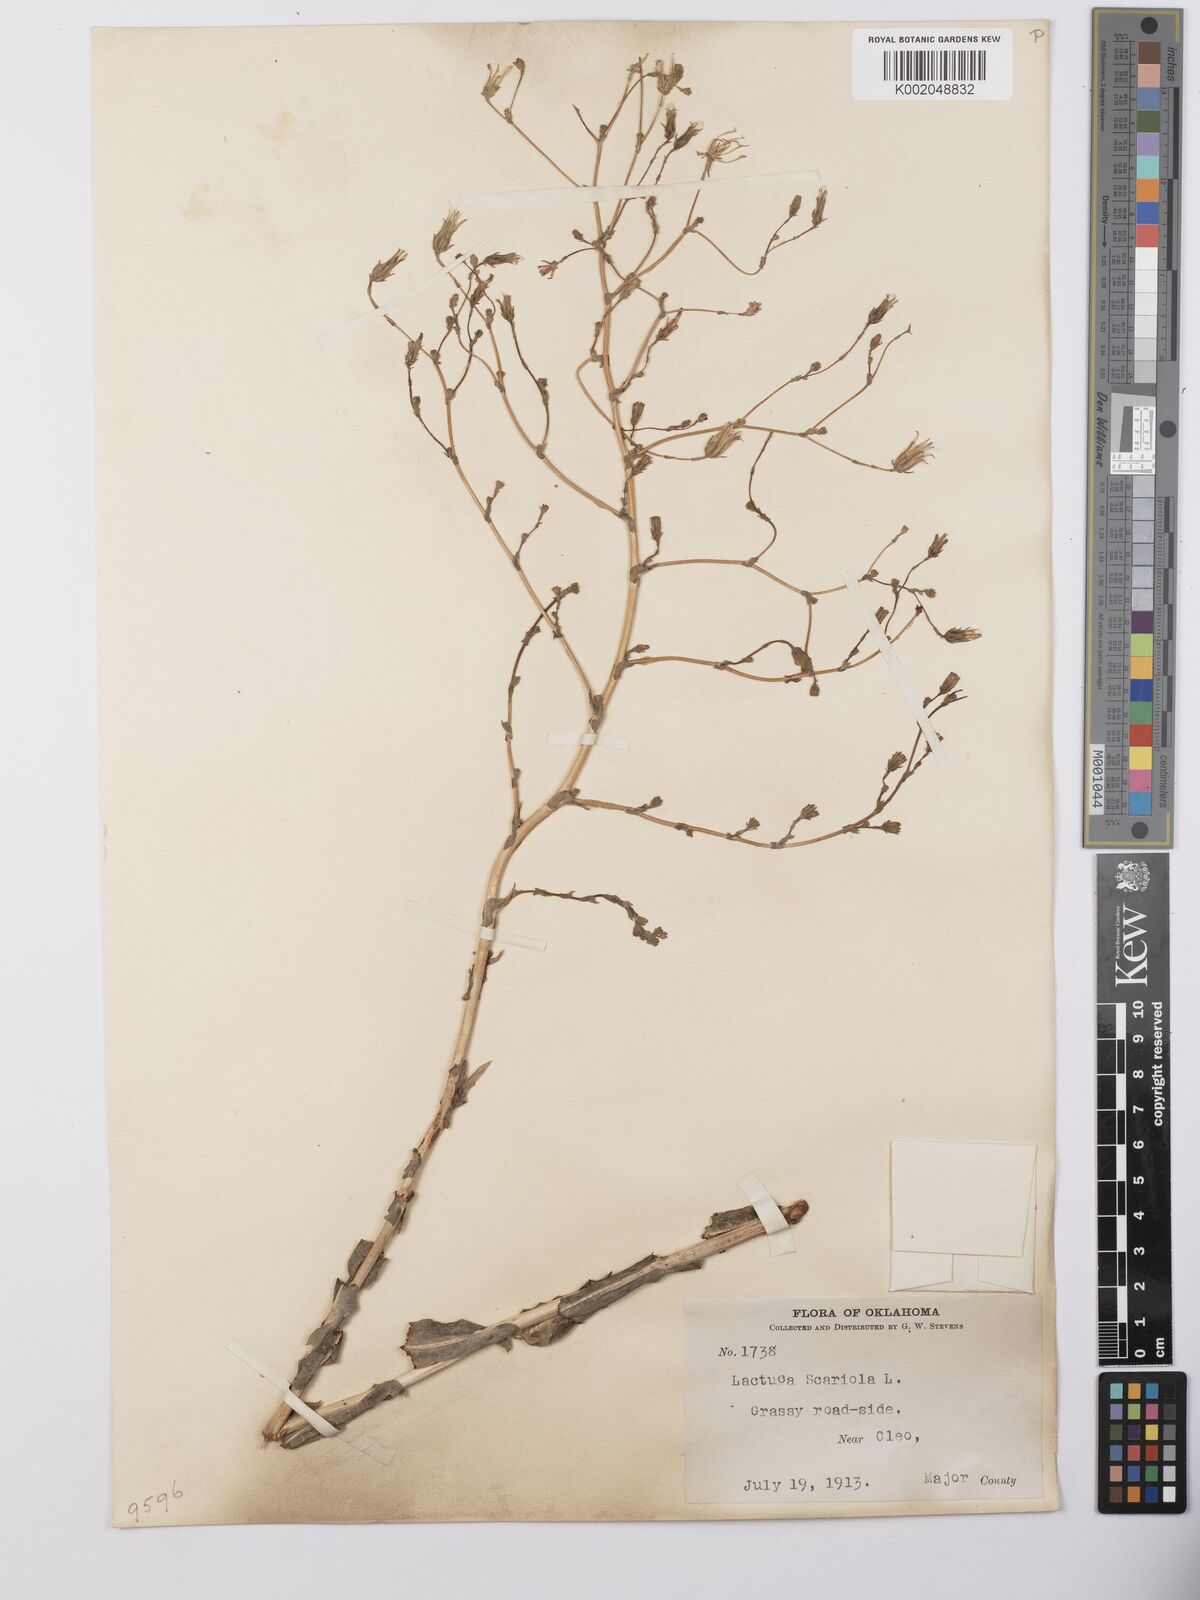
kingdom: Plantae
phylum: Tracheophyta
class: Magnoliopsida
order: Asterales
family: Asteraceae
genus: Lactuca
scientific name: Lactuca serriola
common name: Prickly lettuce
